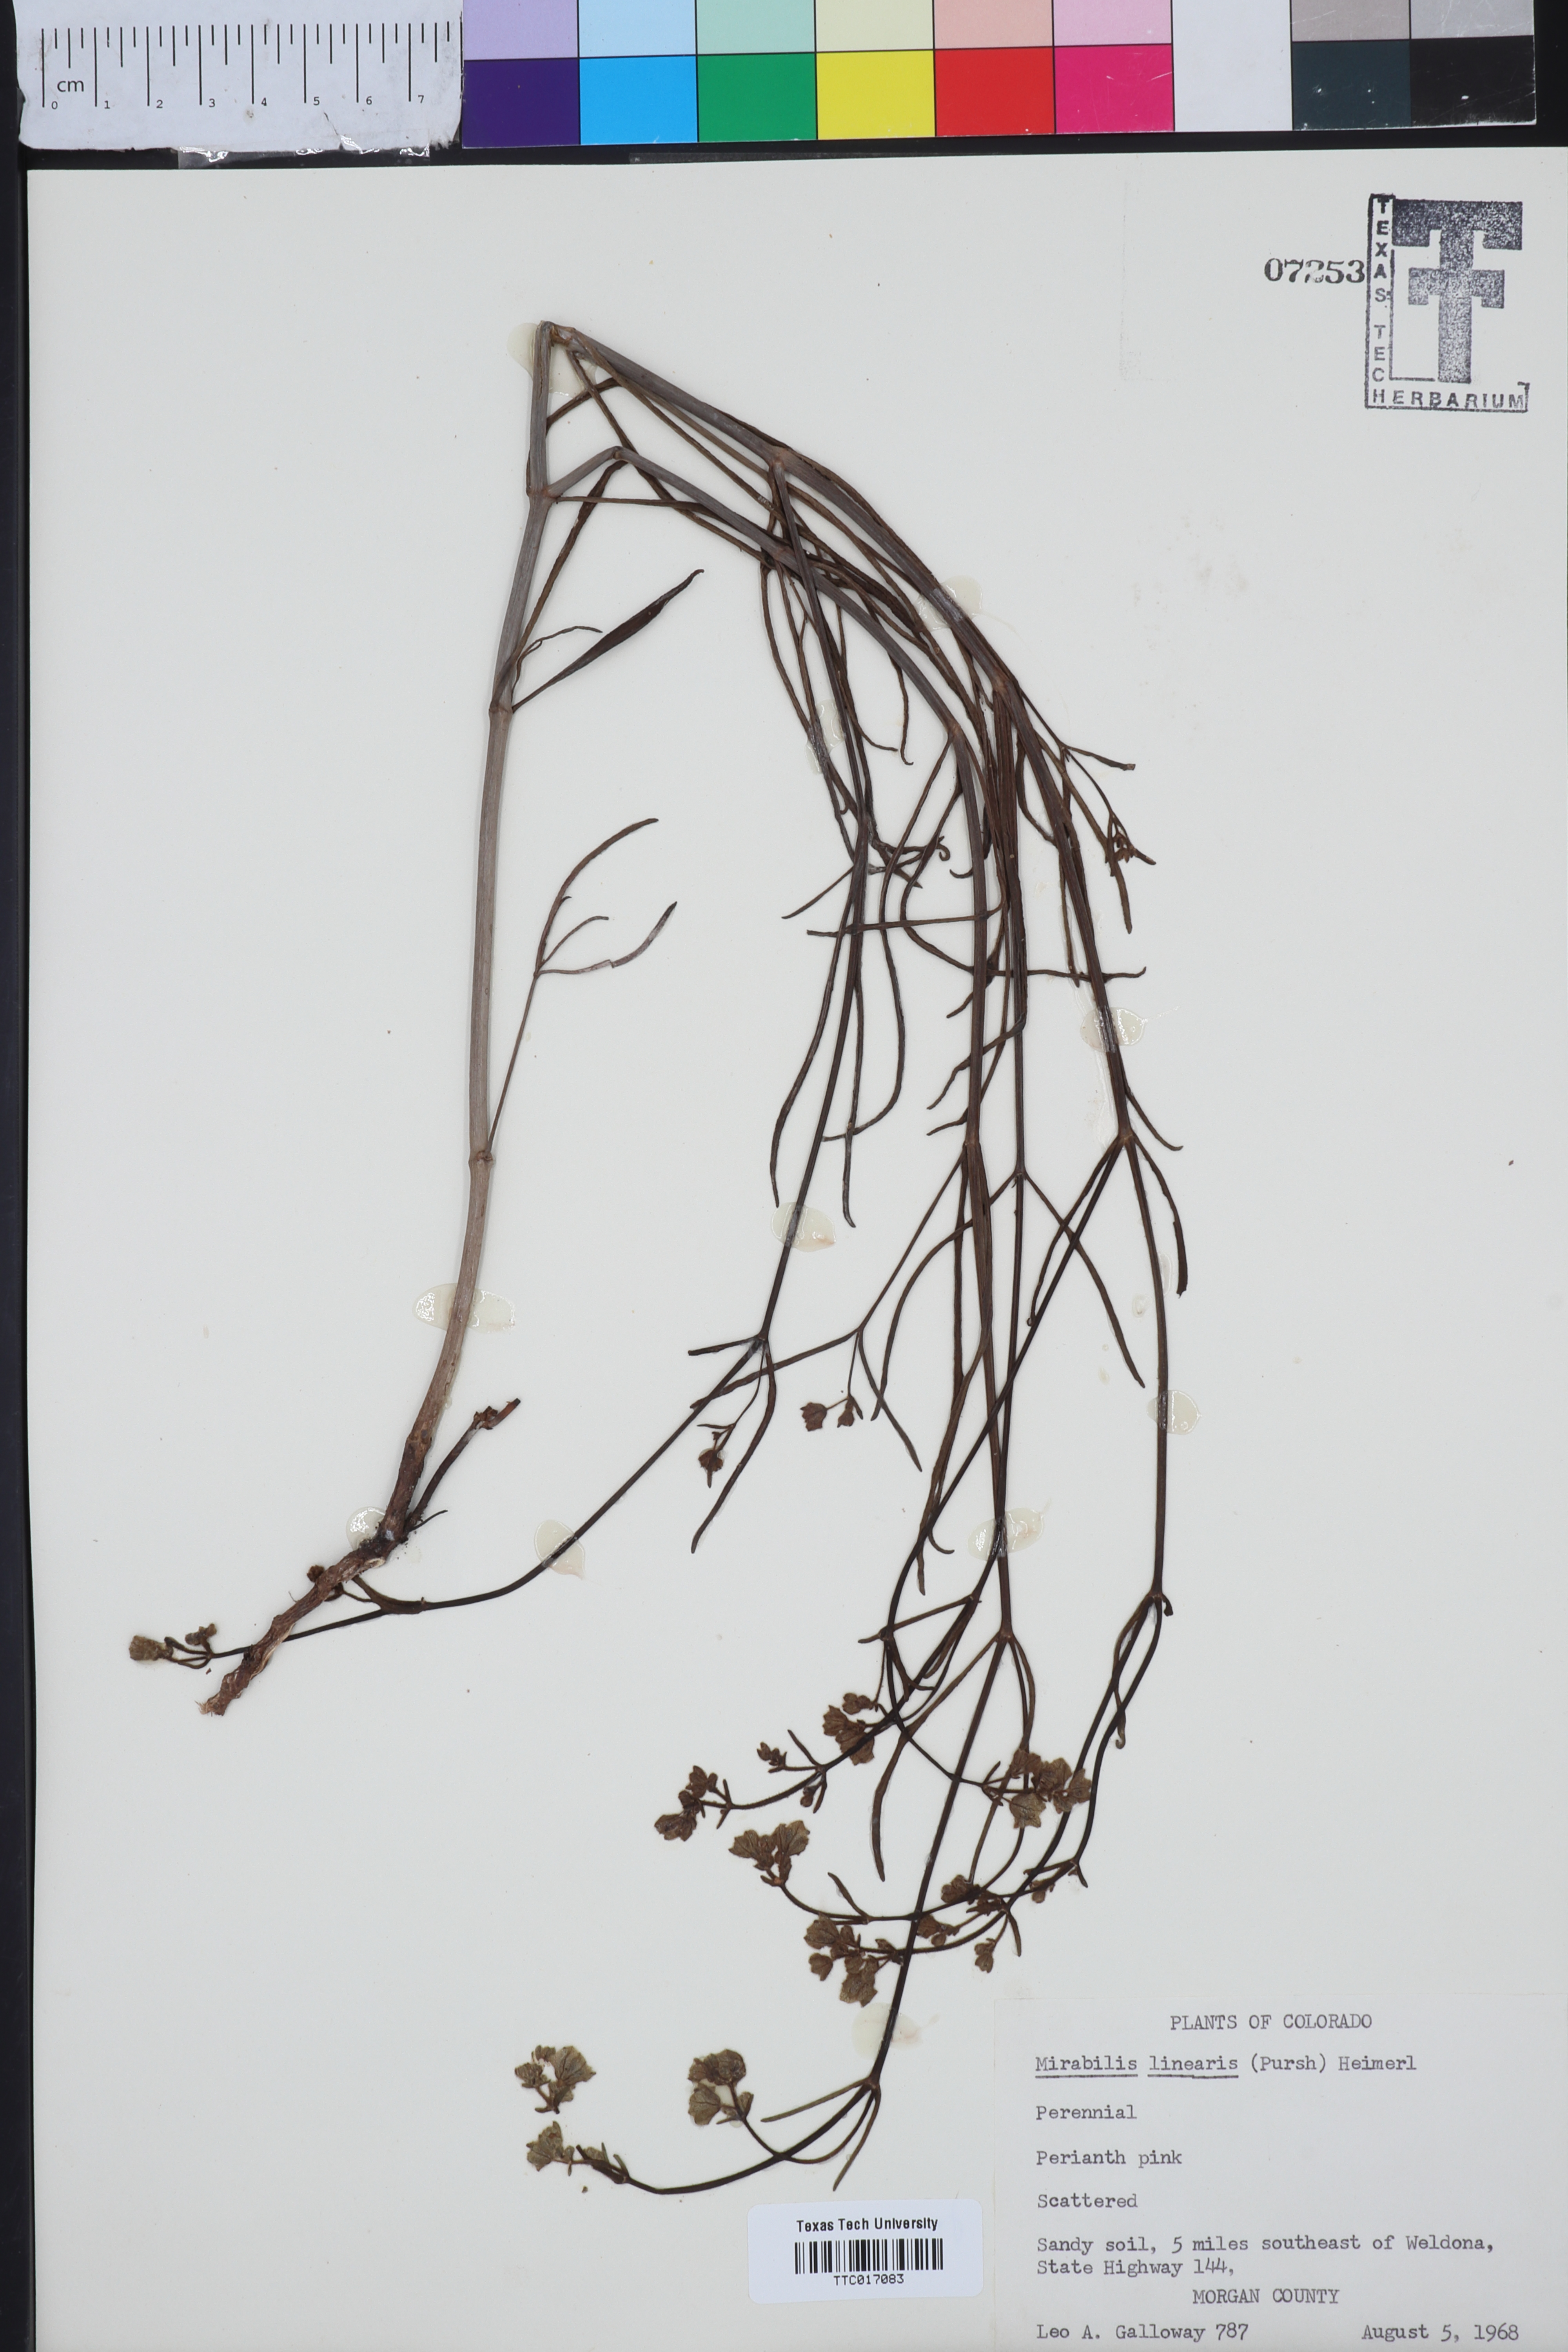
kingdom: Plantae
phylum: Tracheophyta
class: Magnoliopsida
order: Caryophyllales
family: Nyctaginaceae
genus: Mirabilis
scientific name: Mirabilis linearis
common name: Linear-leaved four-o'clock
